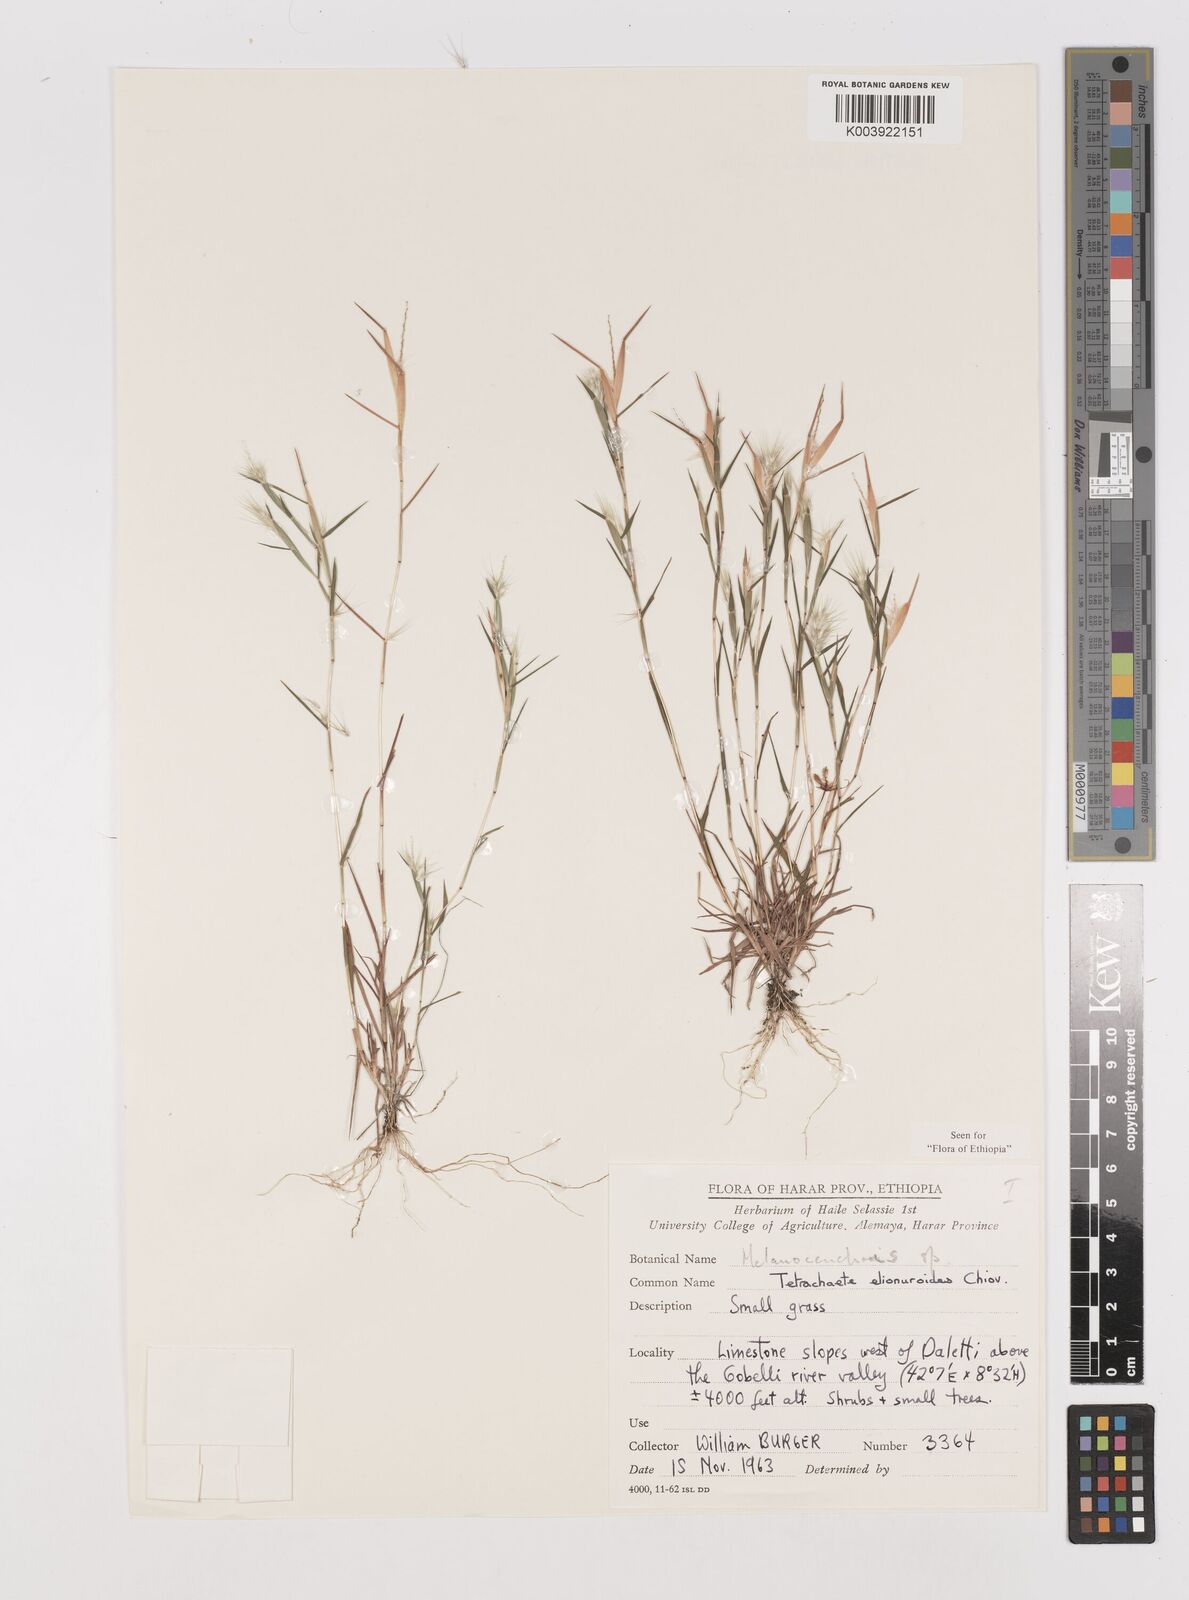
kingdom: Plantae
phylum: Tracheophyta
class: Liliopsida
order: Poales
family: Poaceae
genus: Tetrachaete
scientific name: Tetrachaete elionuroides
